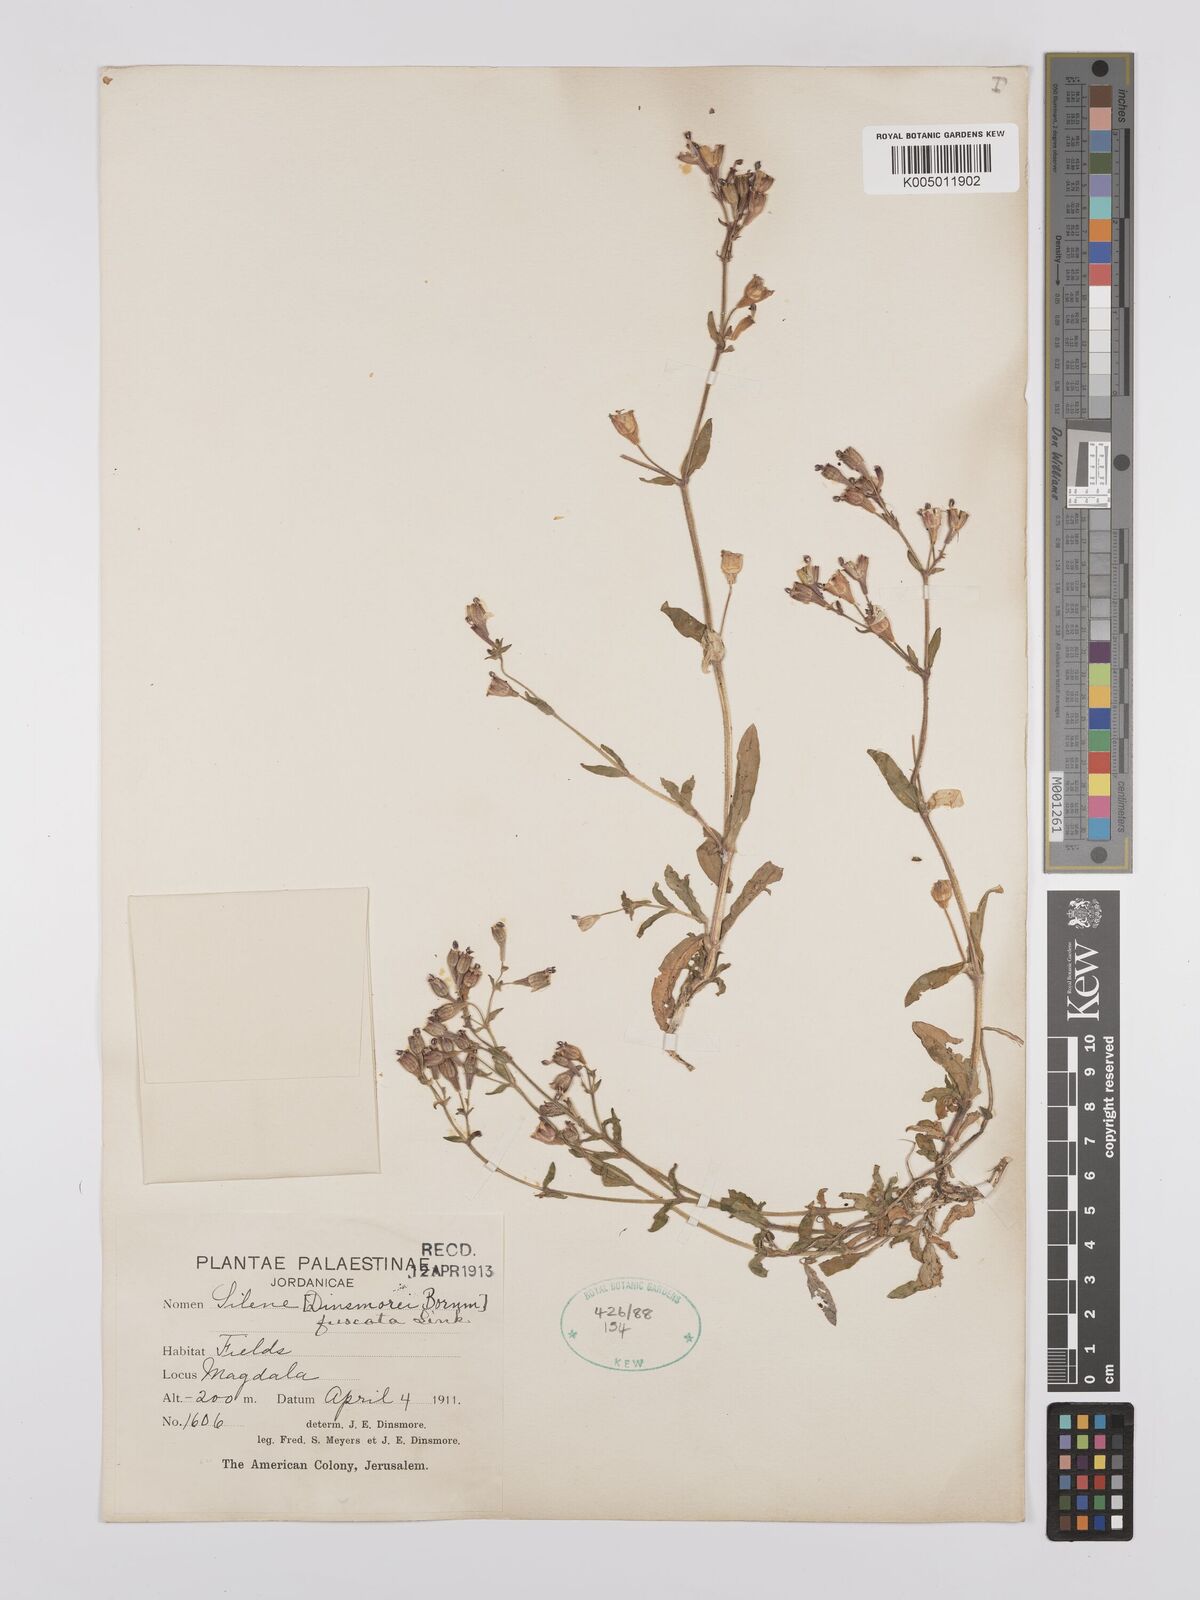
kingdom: Plantae
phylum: Tracheophyta
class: Magnoliopsida
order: Caryophyllales
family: Caryophyllaceae
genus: Silene
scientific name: Silene fuscata
